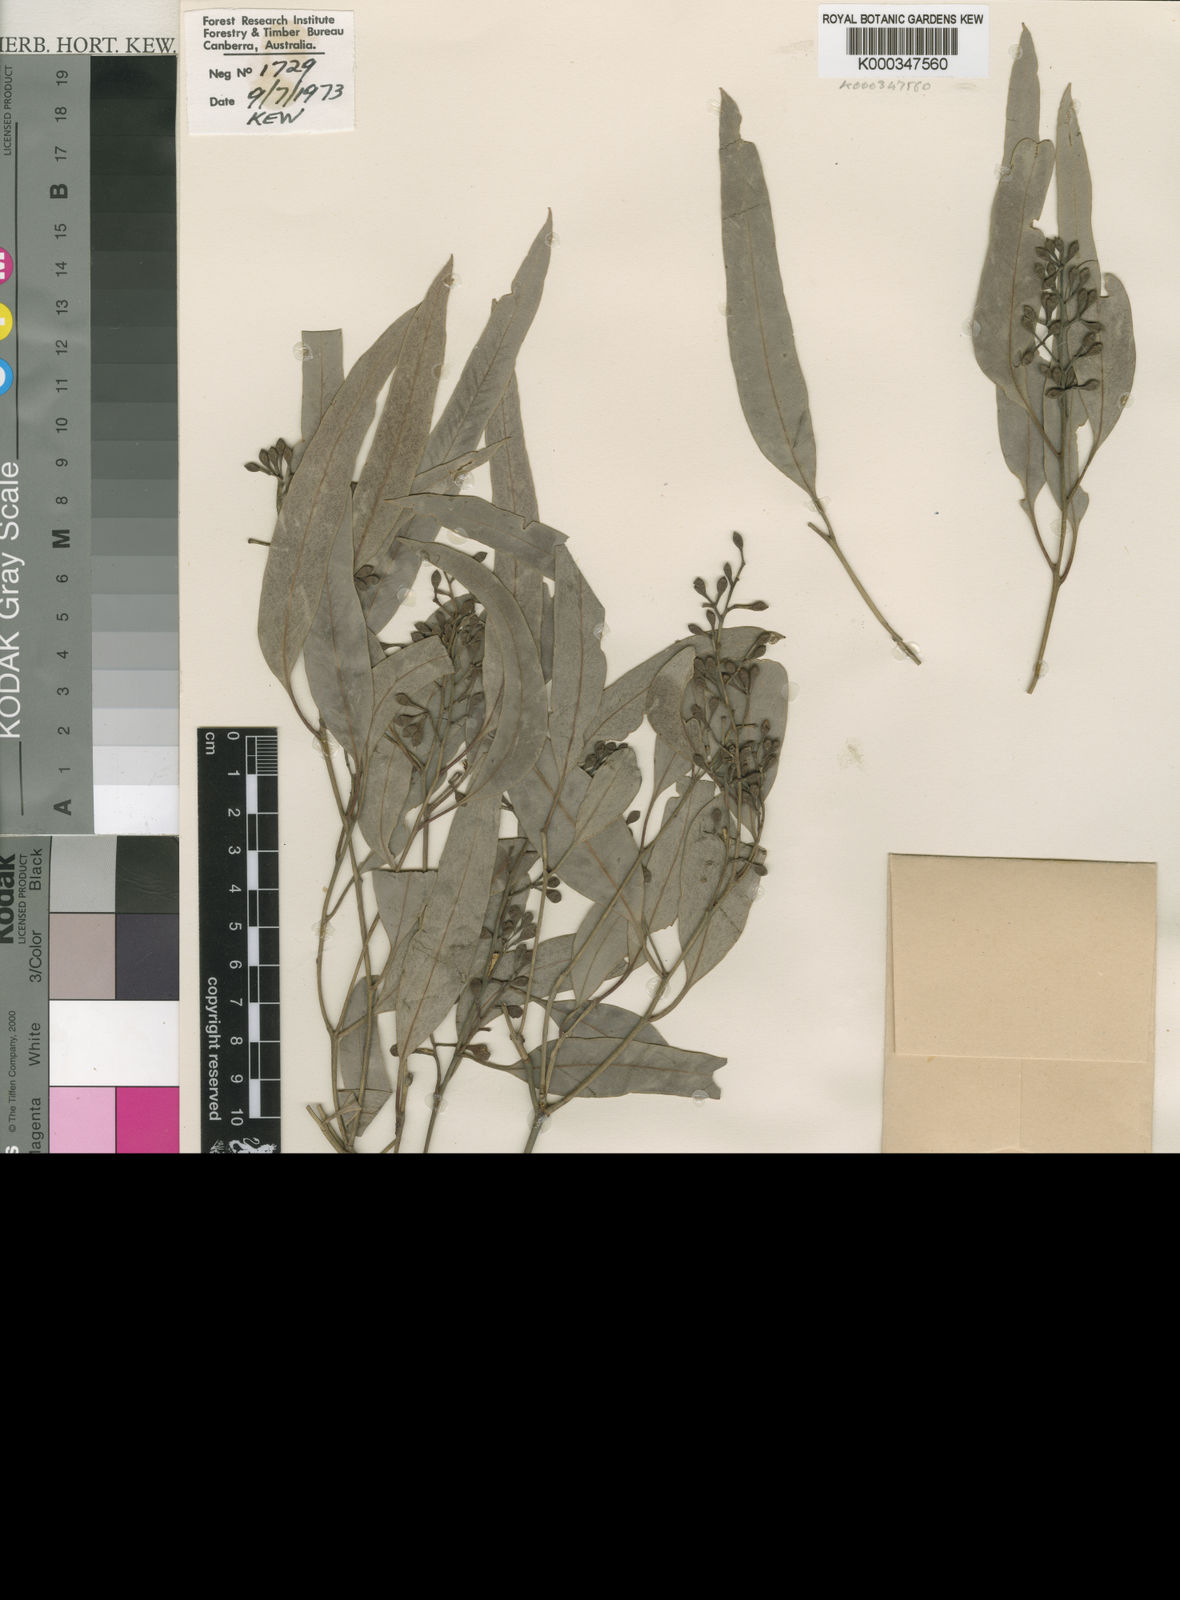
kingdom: Plantae
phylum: Tracheophyta
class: Magnoliopsida
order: Myrtales
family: Myrtaceae
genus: Eucalyptus
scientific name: Eucalyptus largiflorens
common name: Black-box
